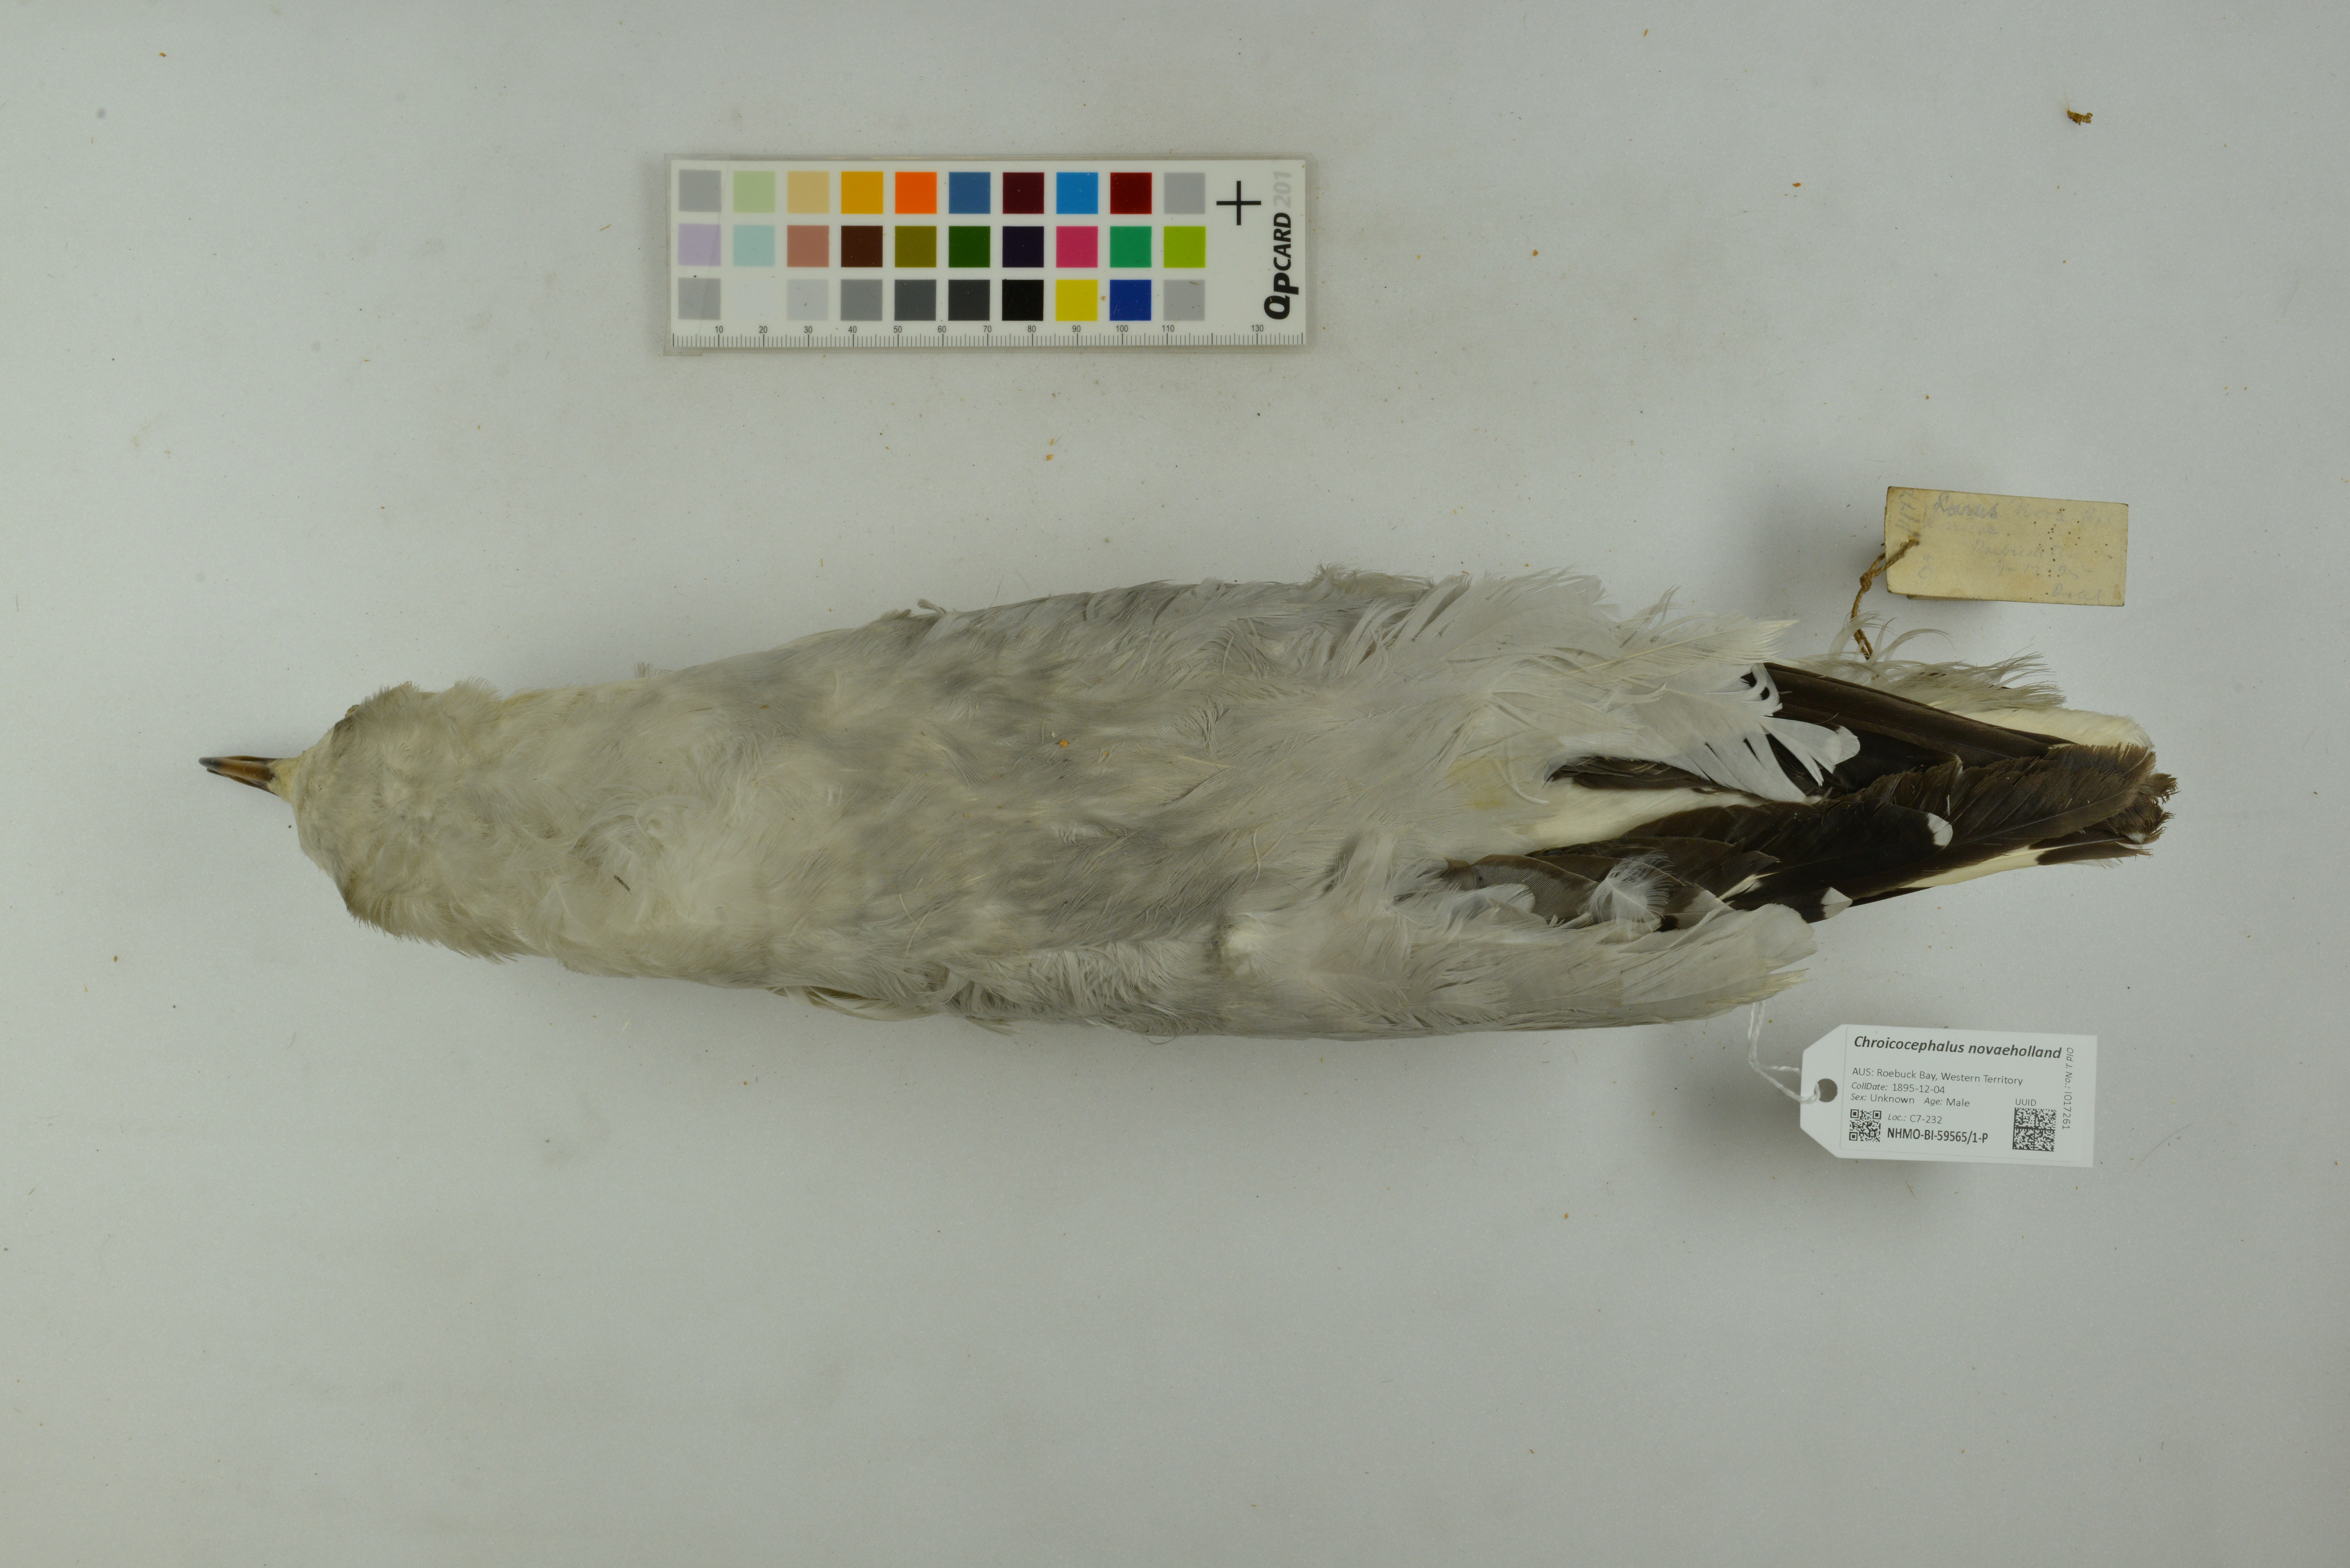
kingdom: Animalia
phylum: Chordata
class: Aves
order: Charadriiformes
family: Laridae
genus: Chroicocephalus
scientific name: Chroicocephalus novaehollandiae
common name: Silver gull
